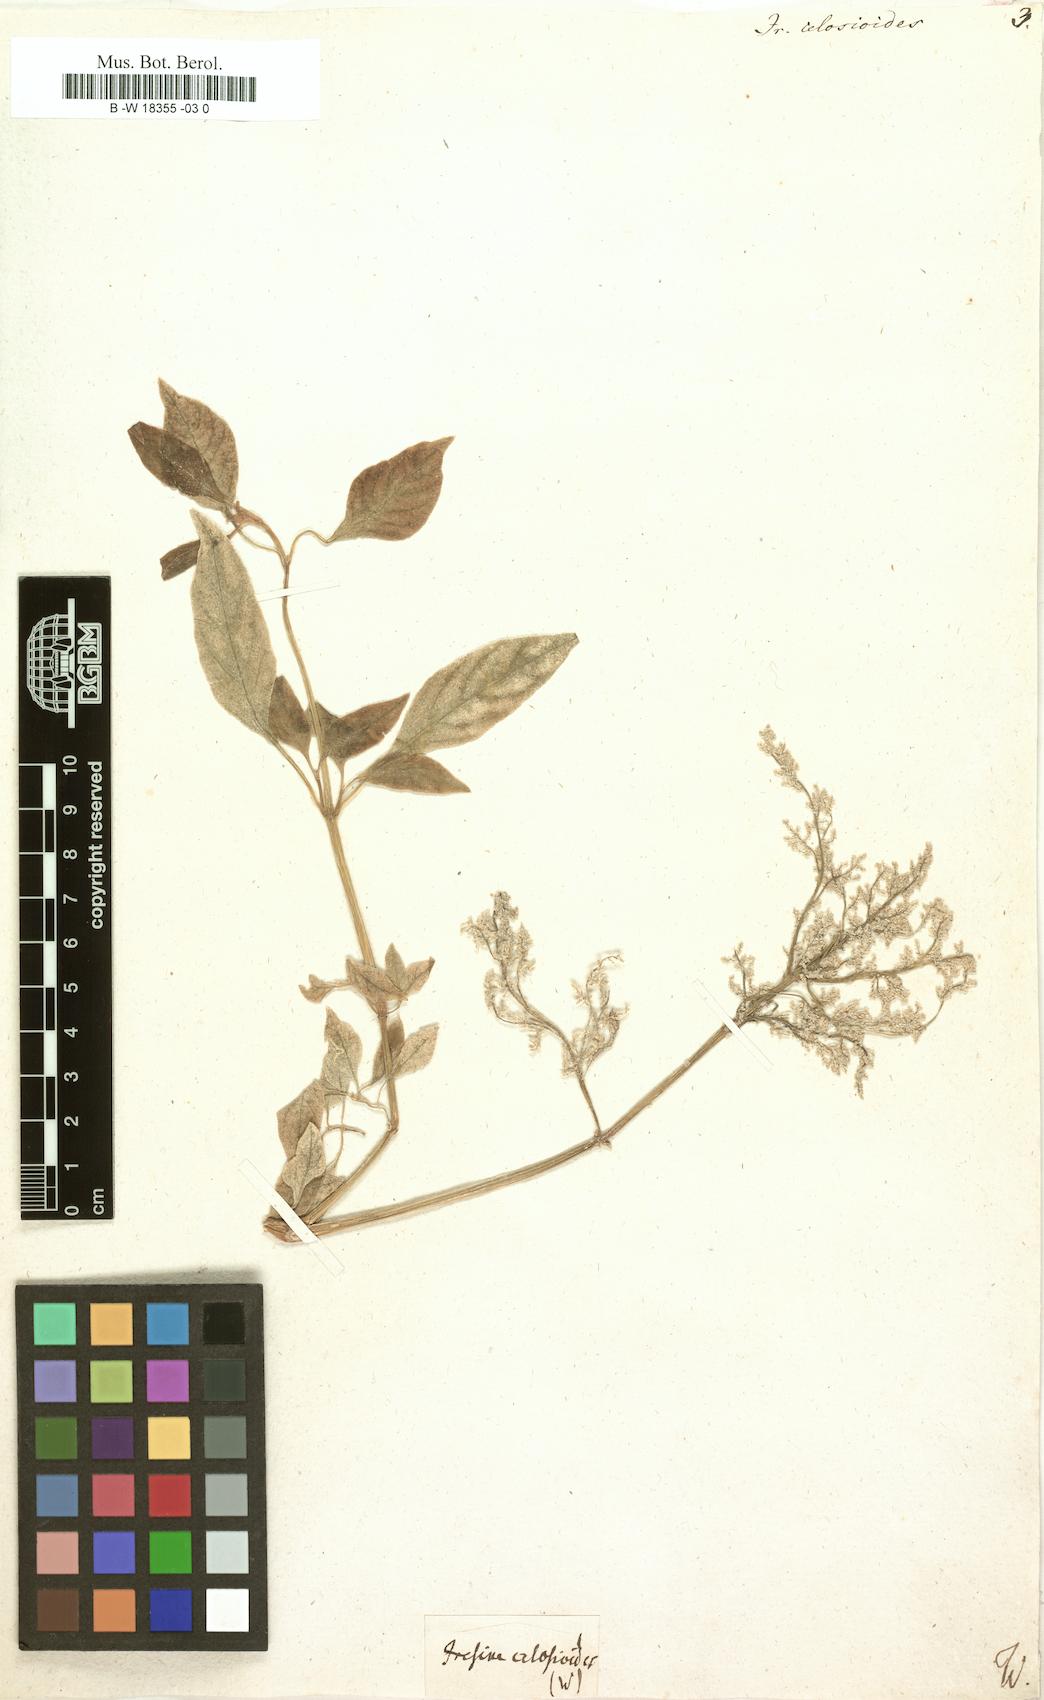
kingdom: Plantae
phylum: Tracheophyta
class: Magnoliopsida
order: Caryophyllales
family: Amaranthaceae
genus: Iresine
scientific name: Iresine rhizomatosa
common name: Juda's-bush
